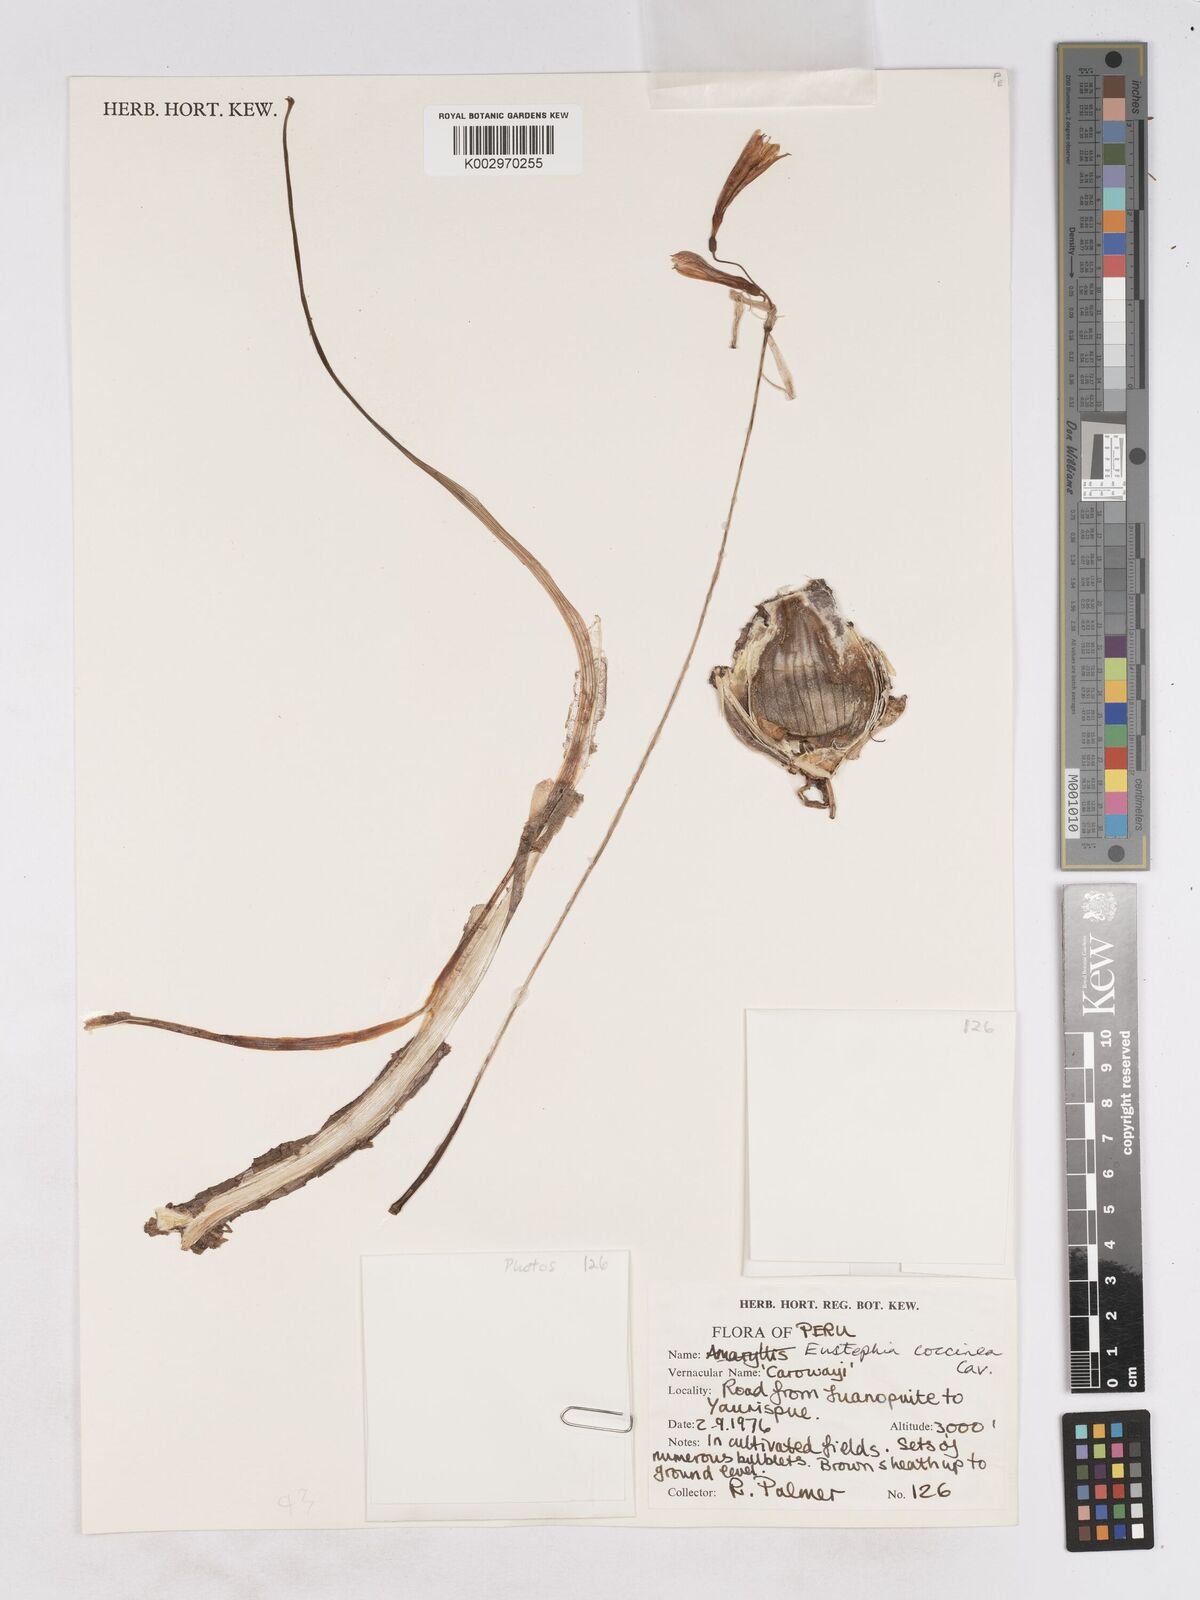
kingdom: Plantae
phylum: Tracheophyta
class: Liliopsida
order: Asparagales
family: Amaryllidaceae
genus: Eustephia
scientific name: Eustephia coccinea
